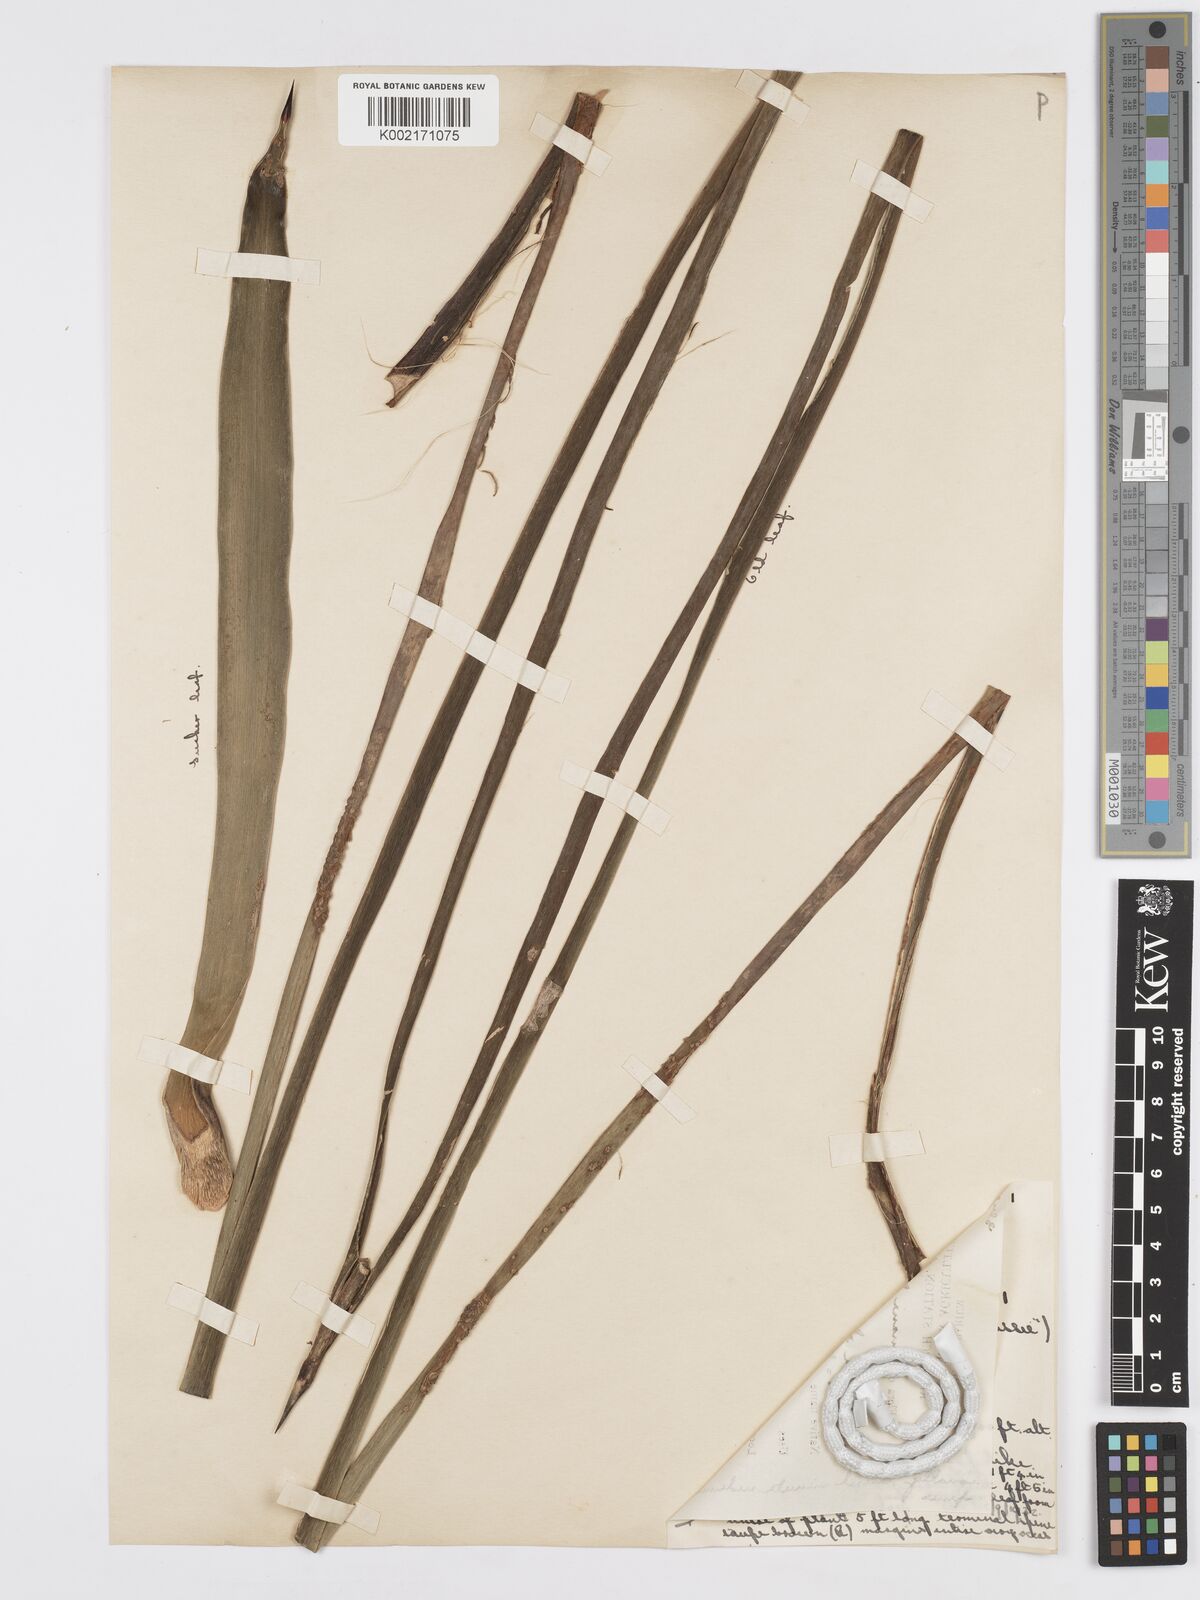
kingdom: Plantae
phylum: Tracheophyta
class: Liliopsida
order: Asparagales
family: Asparagaceae
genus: Agave
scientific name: Agave sisalana
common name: Sisal hemp
